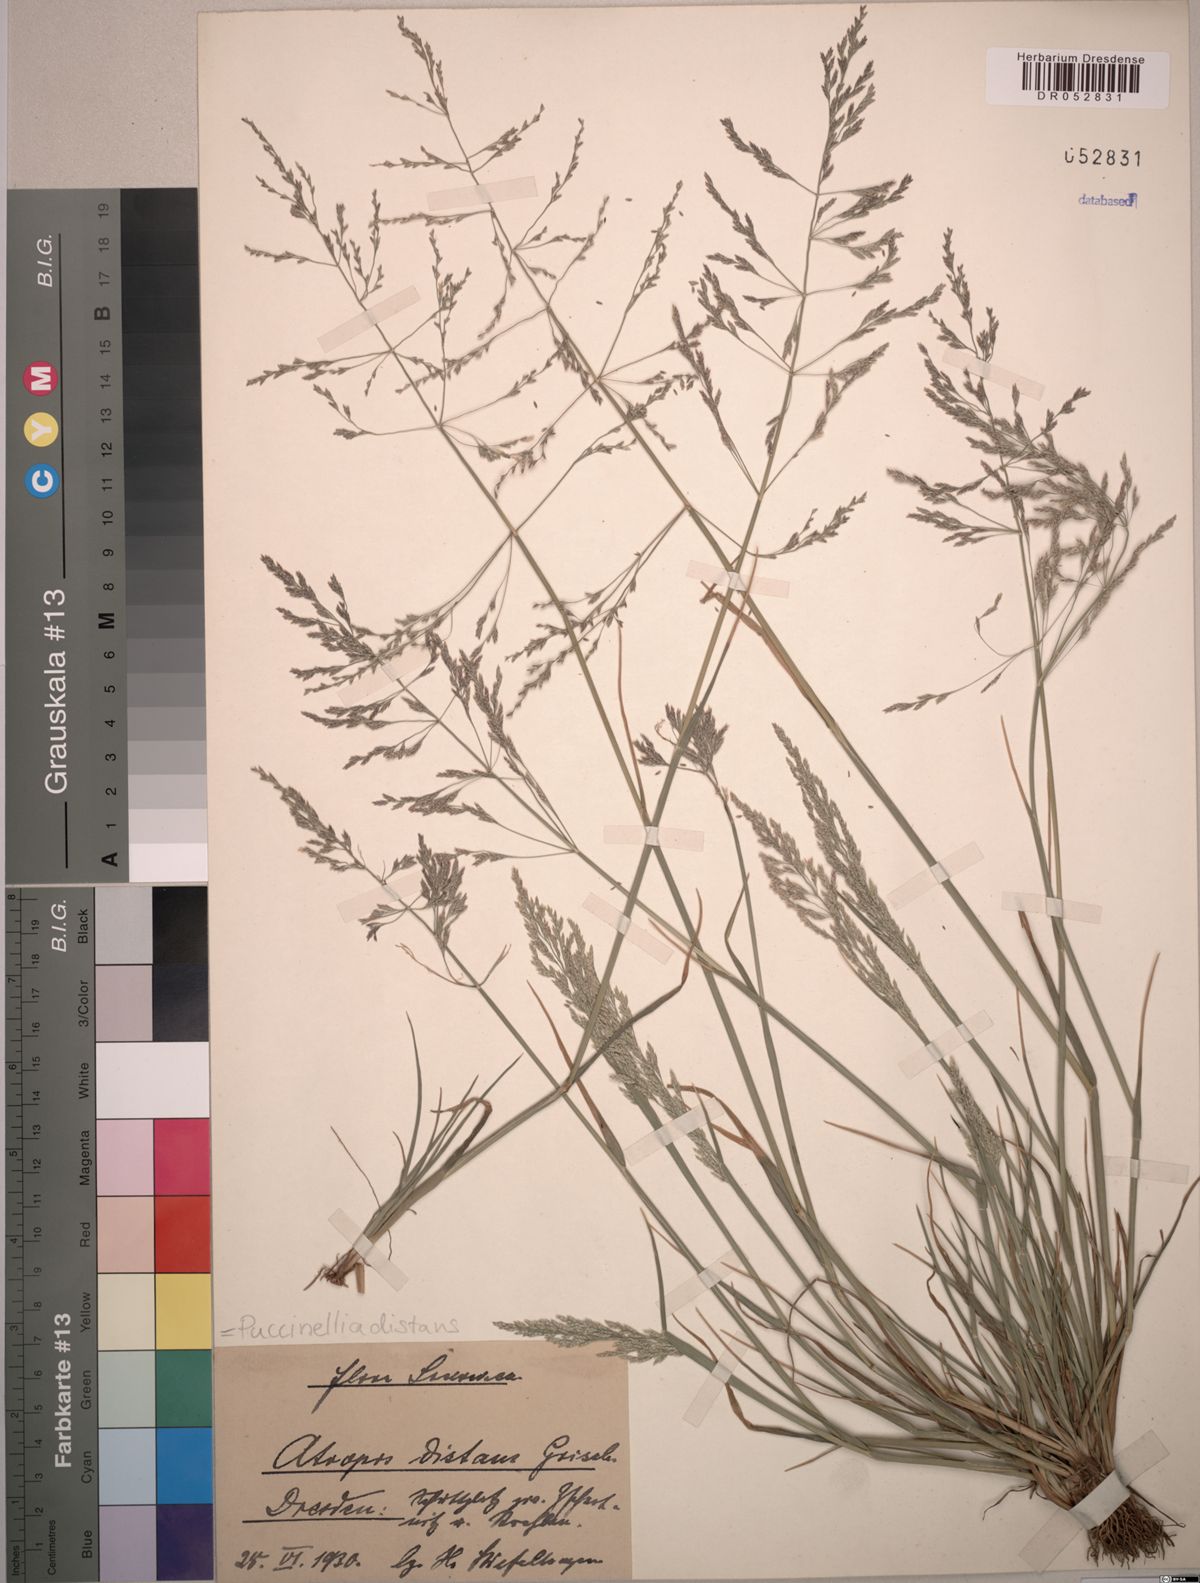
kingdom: Plantae
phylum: Tracheophyta
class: Liliopsida
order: Poales
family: Poaceae
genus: Puccinellia
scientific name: Puccinellia distans
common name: Weeping alkaligrass
